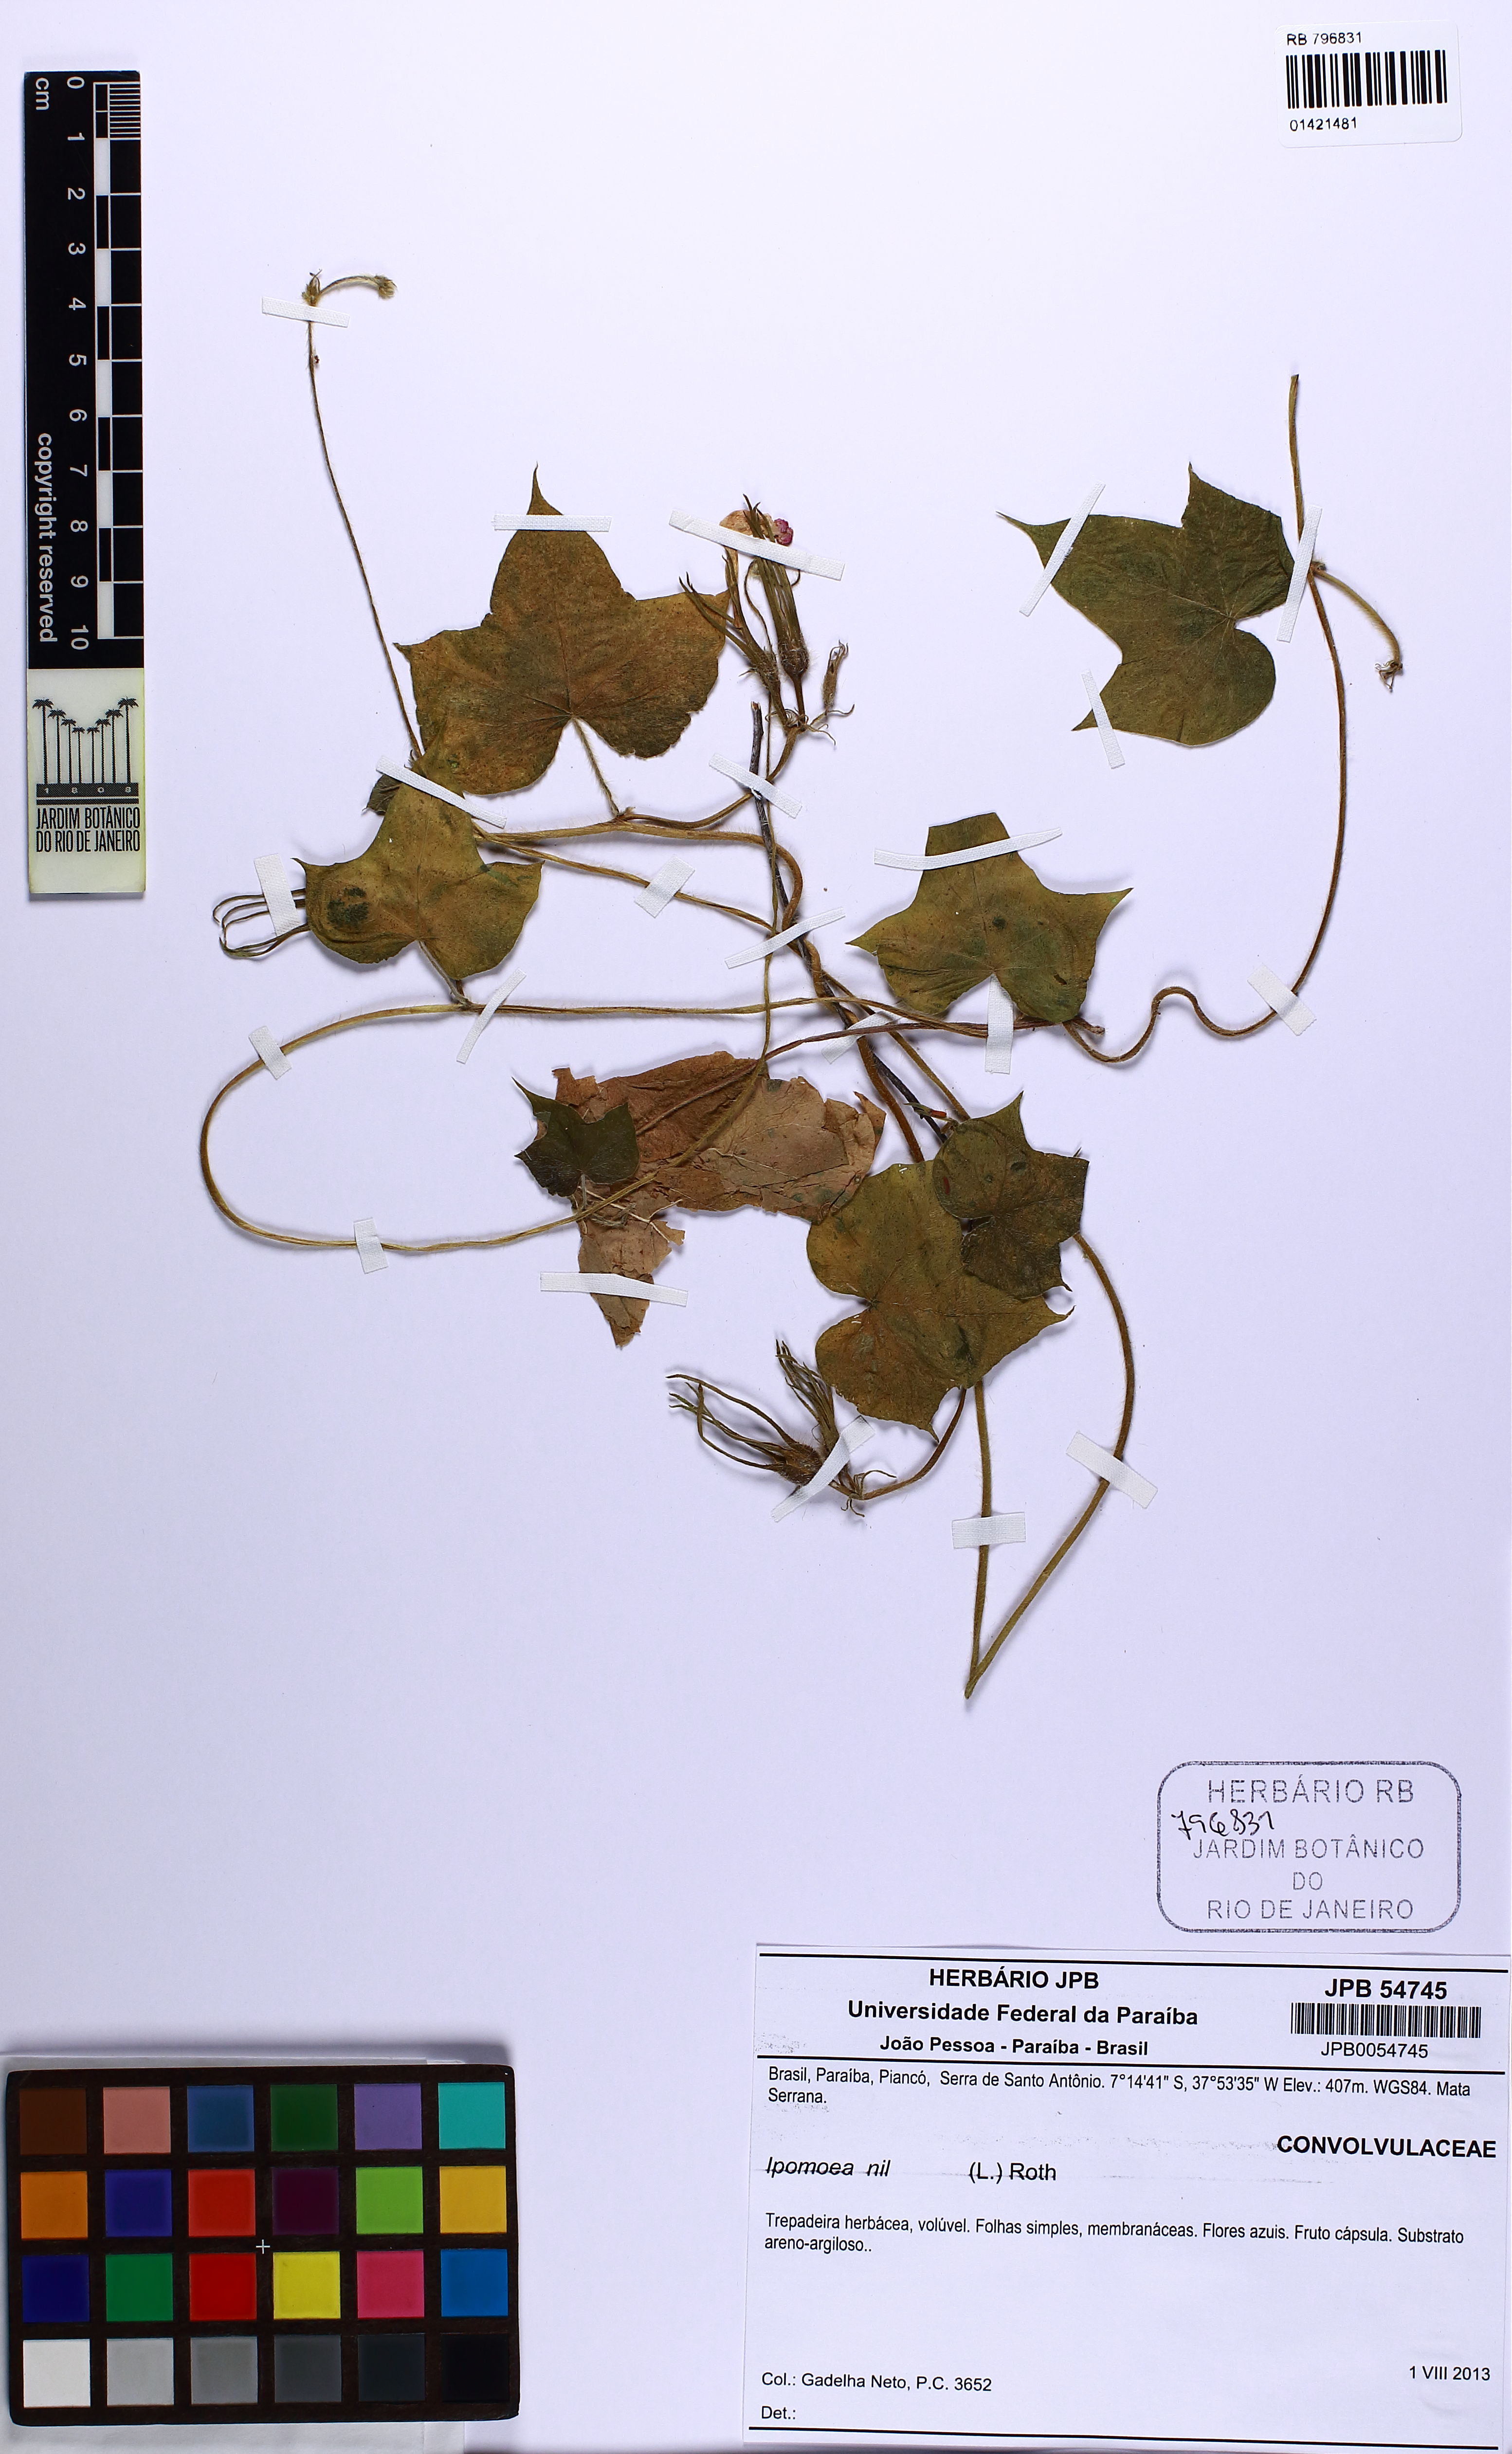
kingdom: Plantae
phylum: Tracheophyta
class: Magnoliopsida
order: Solanales
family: Convolvulaceae
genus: Ipomoea
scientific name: Ipomoea nil
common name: Japanese morning-glory
